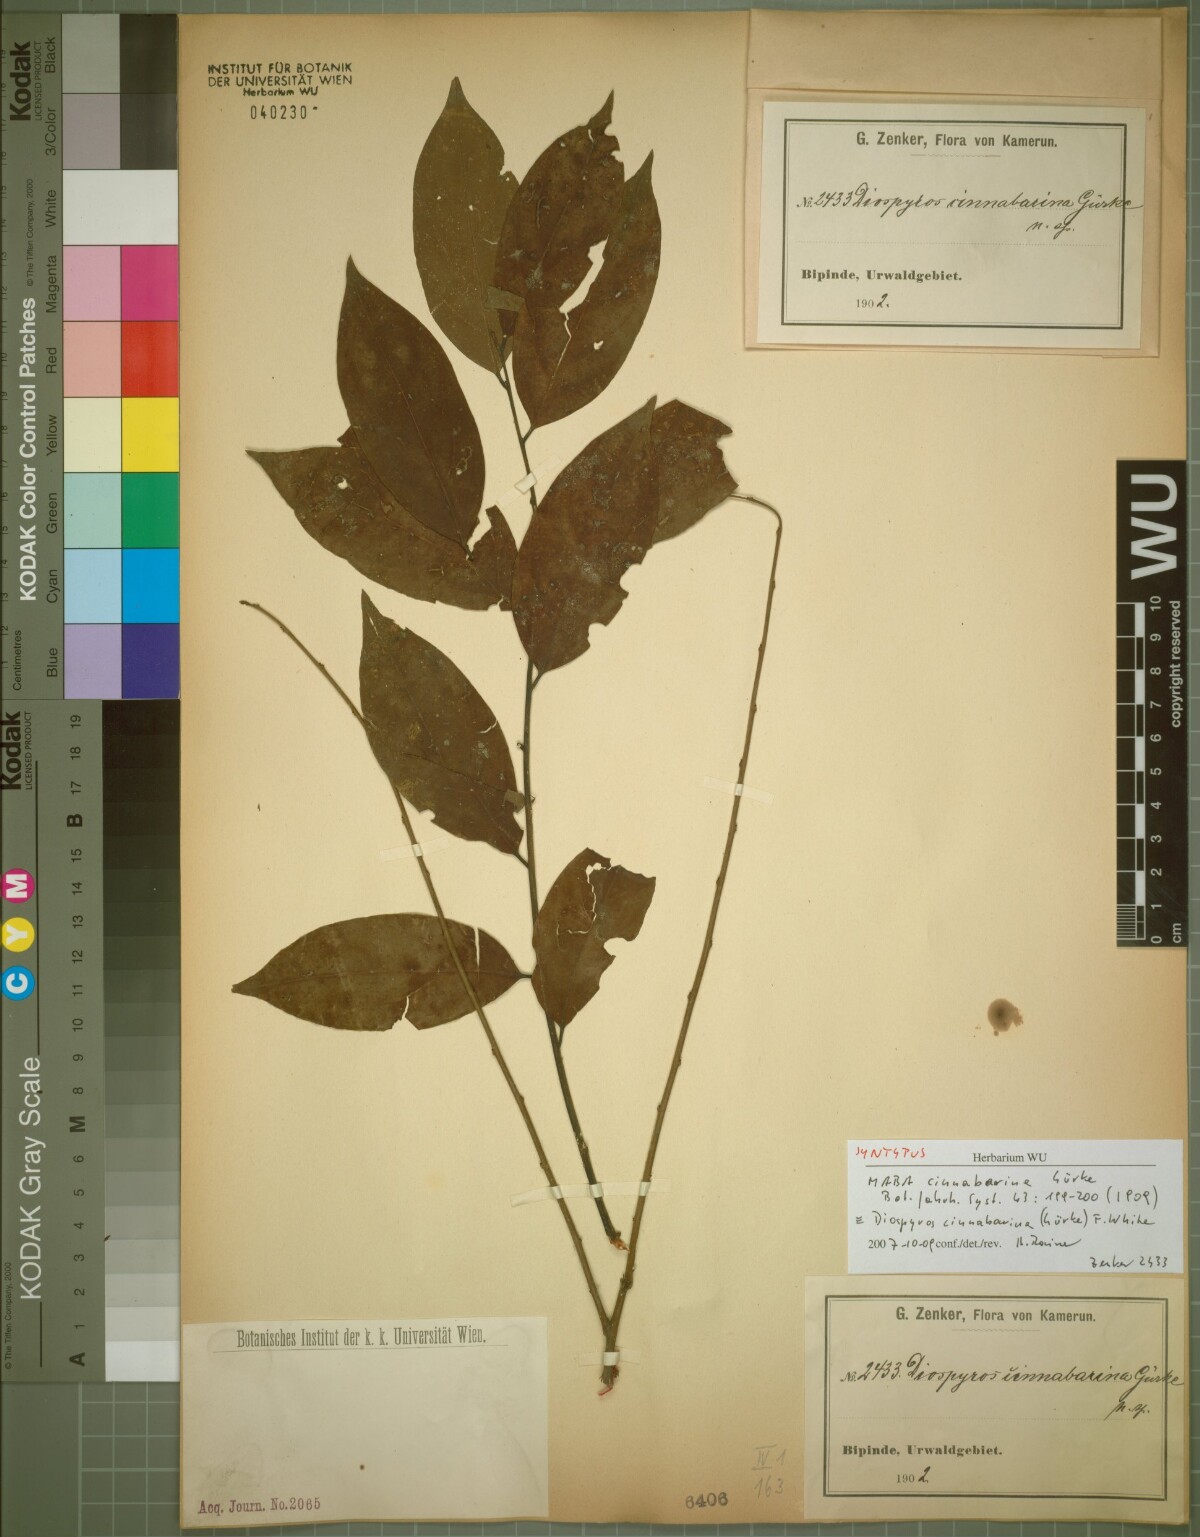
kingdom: Plantae
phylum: Tracheophyta
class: Magnoliopsida
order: Ericales
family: Ebenaceae
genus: Diospyros
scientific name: Diospyros cinnabarina
